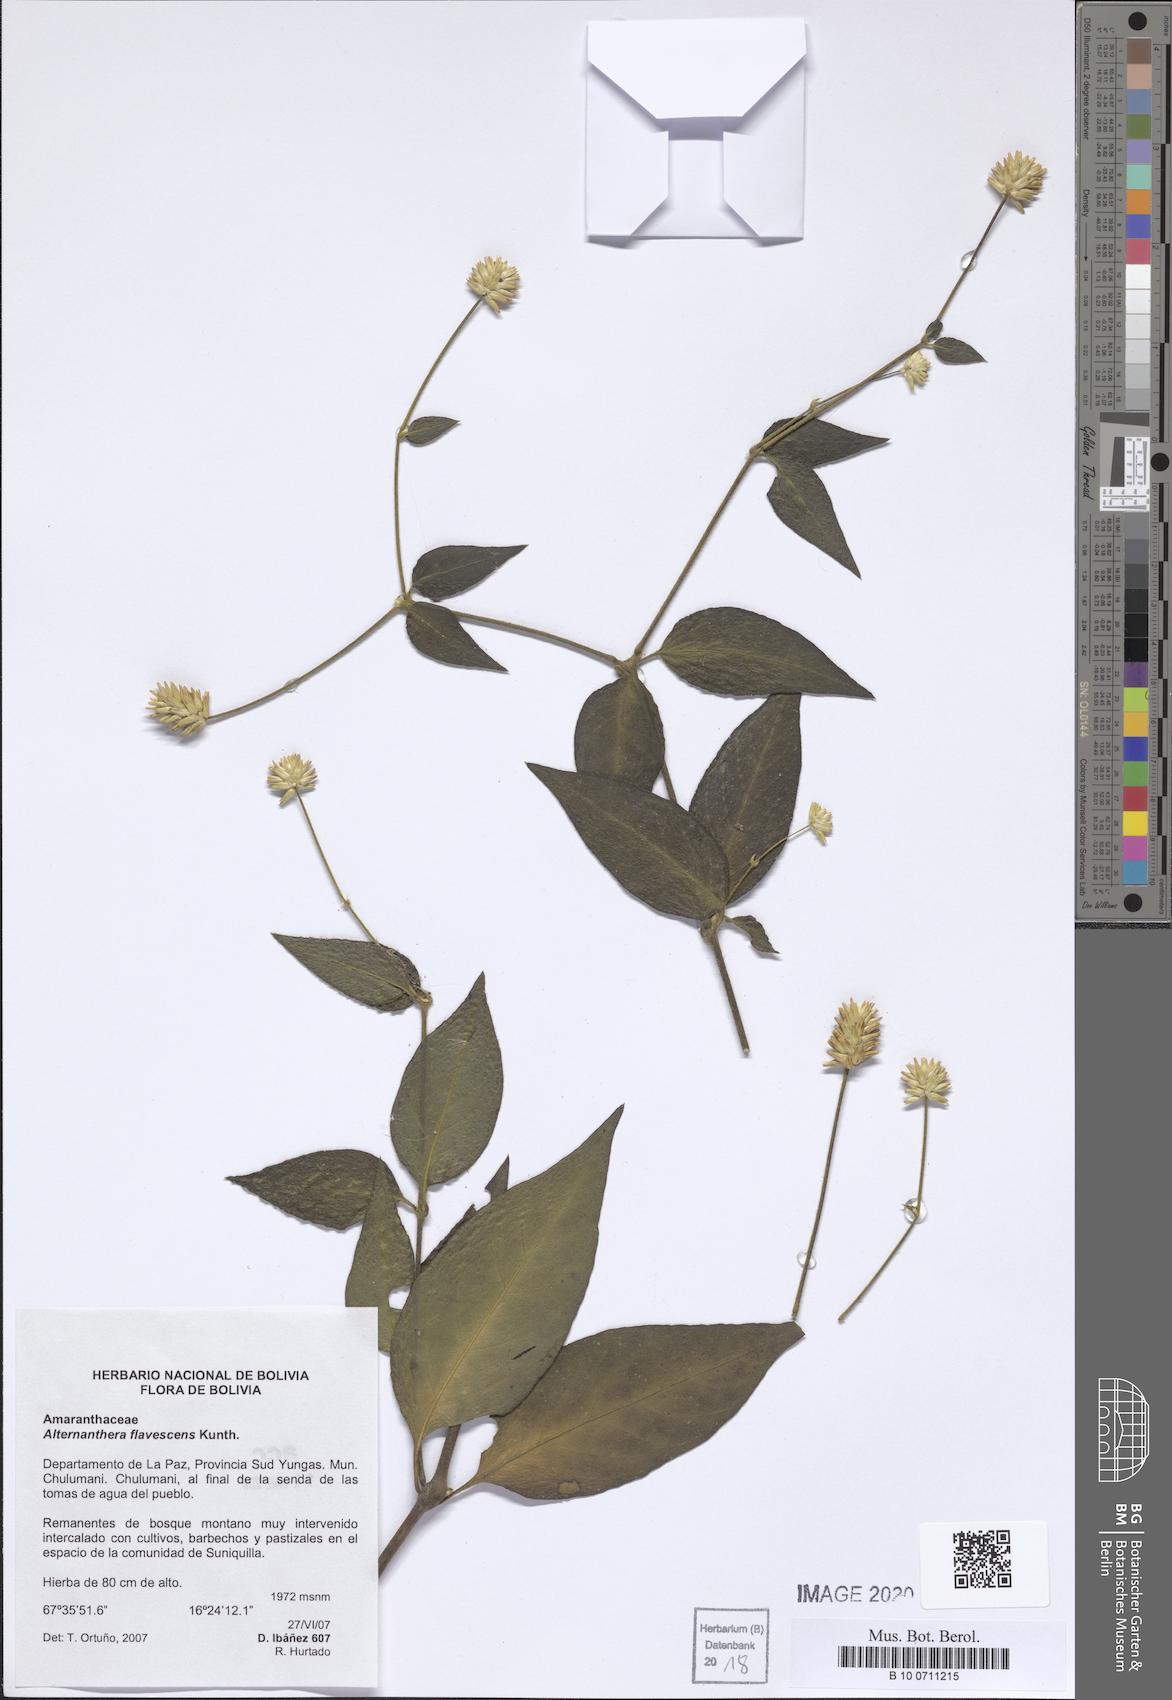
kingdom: Plantae
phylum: Tracheophyta
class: Magnoliopsida
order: Caryophyllales
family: Amaranthaceae
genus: Alternanthera
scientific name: Alternanthera flavescens
